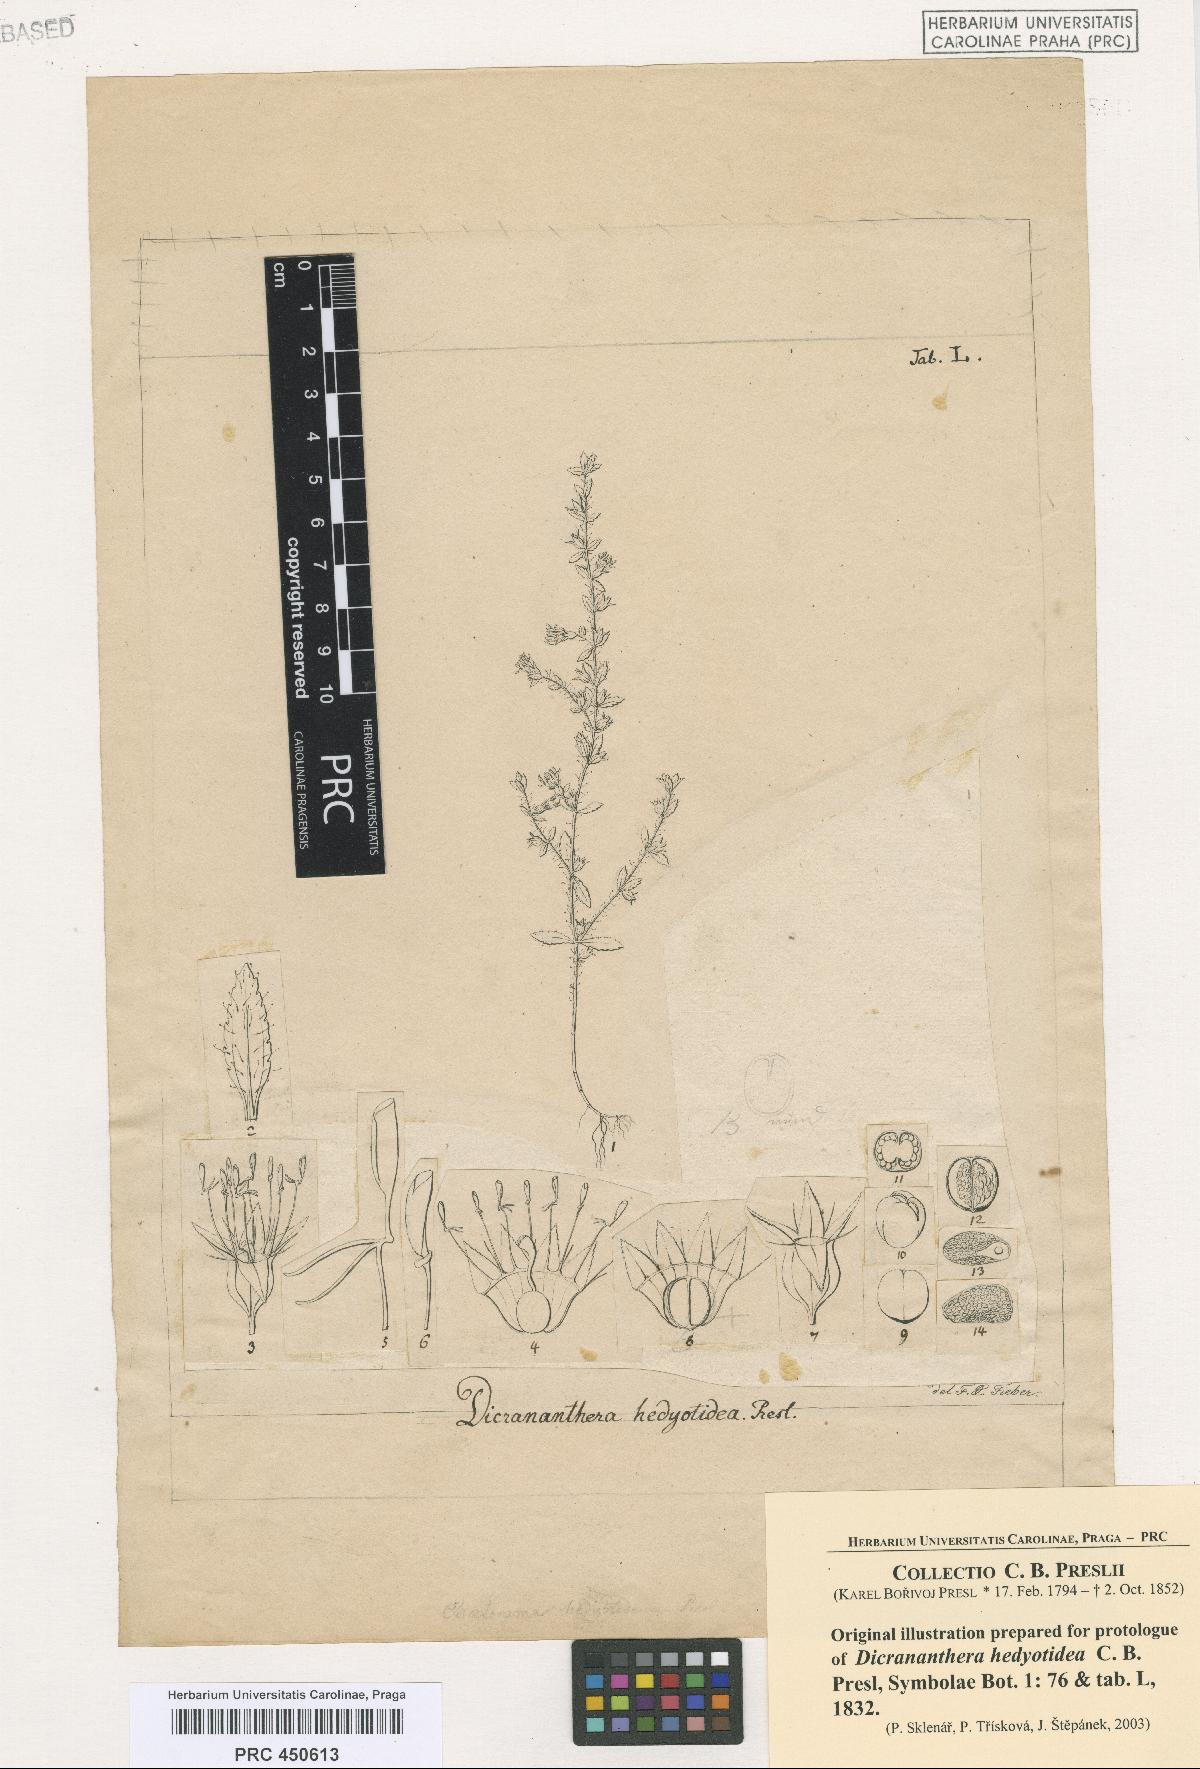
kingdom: Plantae
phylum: Tracheophyta
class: Magnoliopsida
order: Myrtales
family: Melastomataceae
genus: Dicrananthera
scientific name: Dicrananthera hedyotidea
